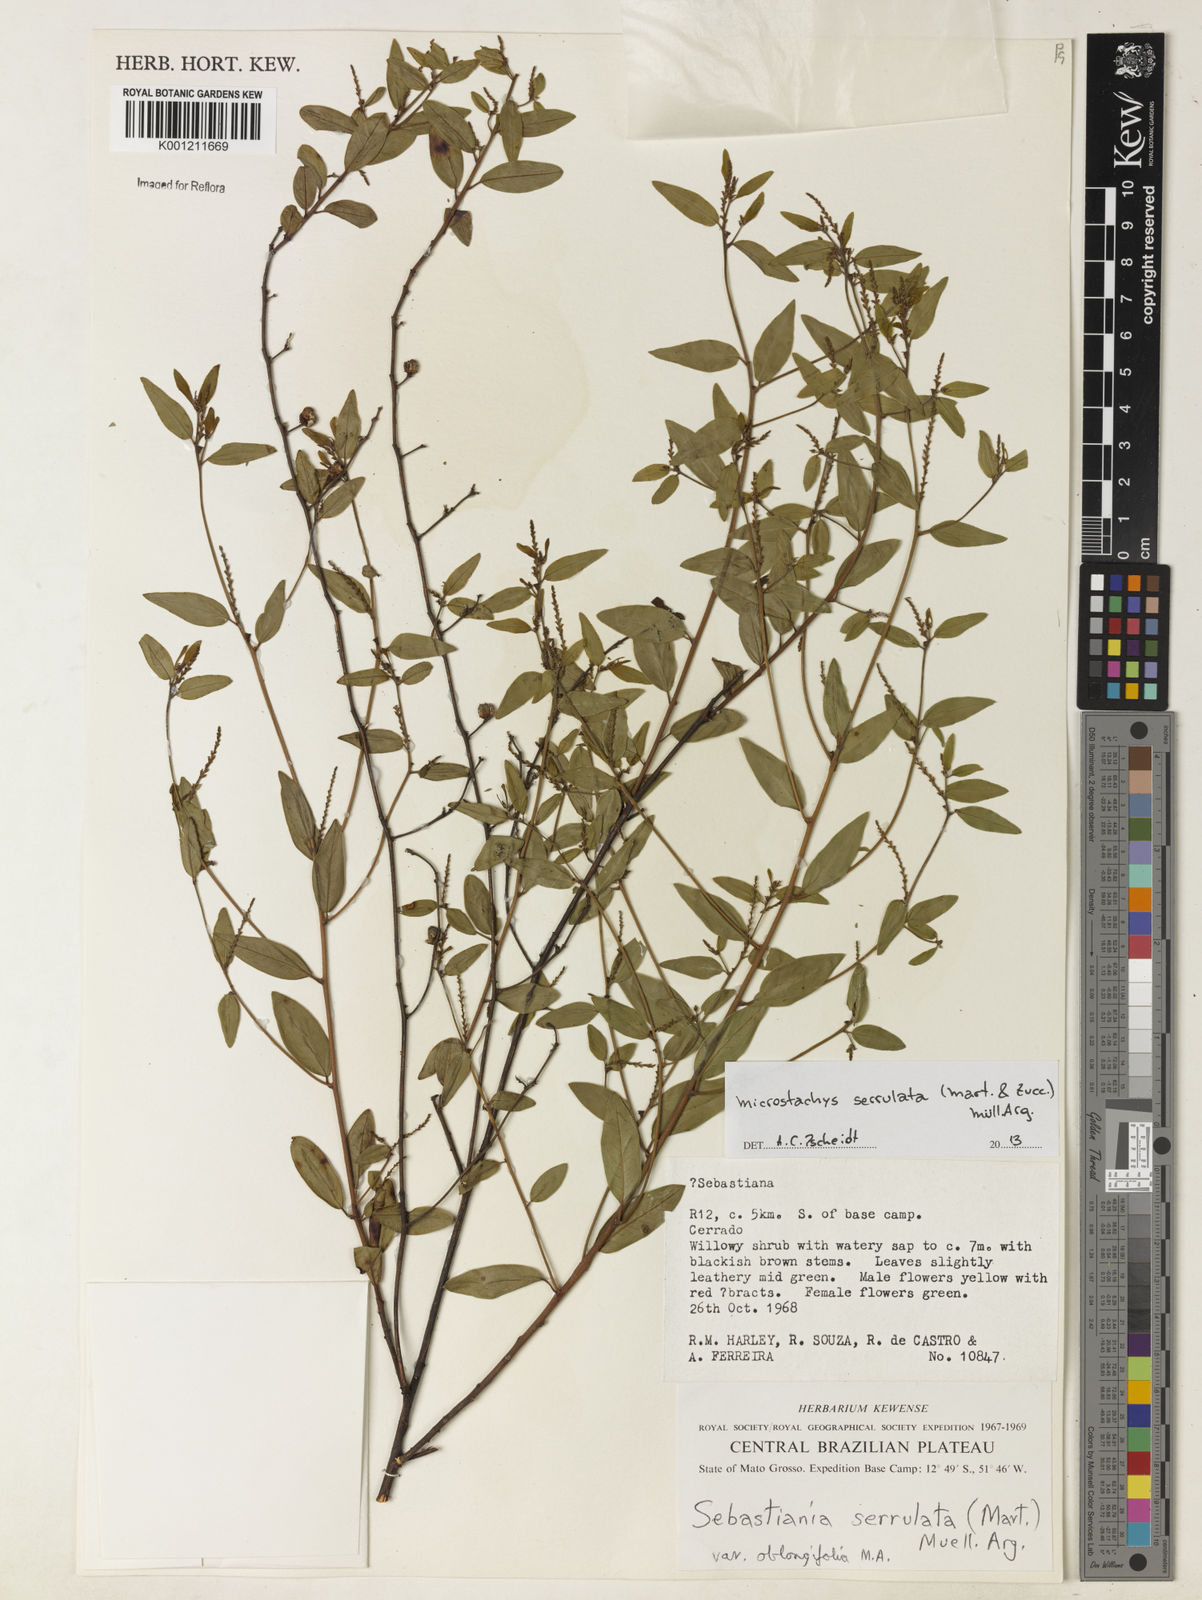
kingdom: Plantae
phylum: Tracheophyta
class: Magnoliopsida
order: Malpighiales
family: Euphorbiaceae
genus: Microstachys
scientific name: Microstachys
